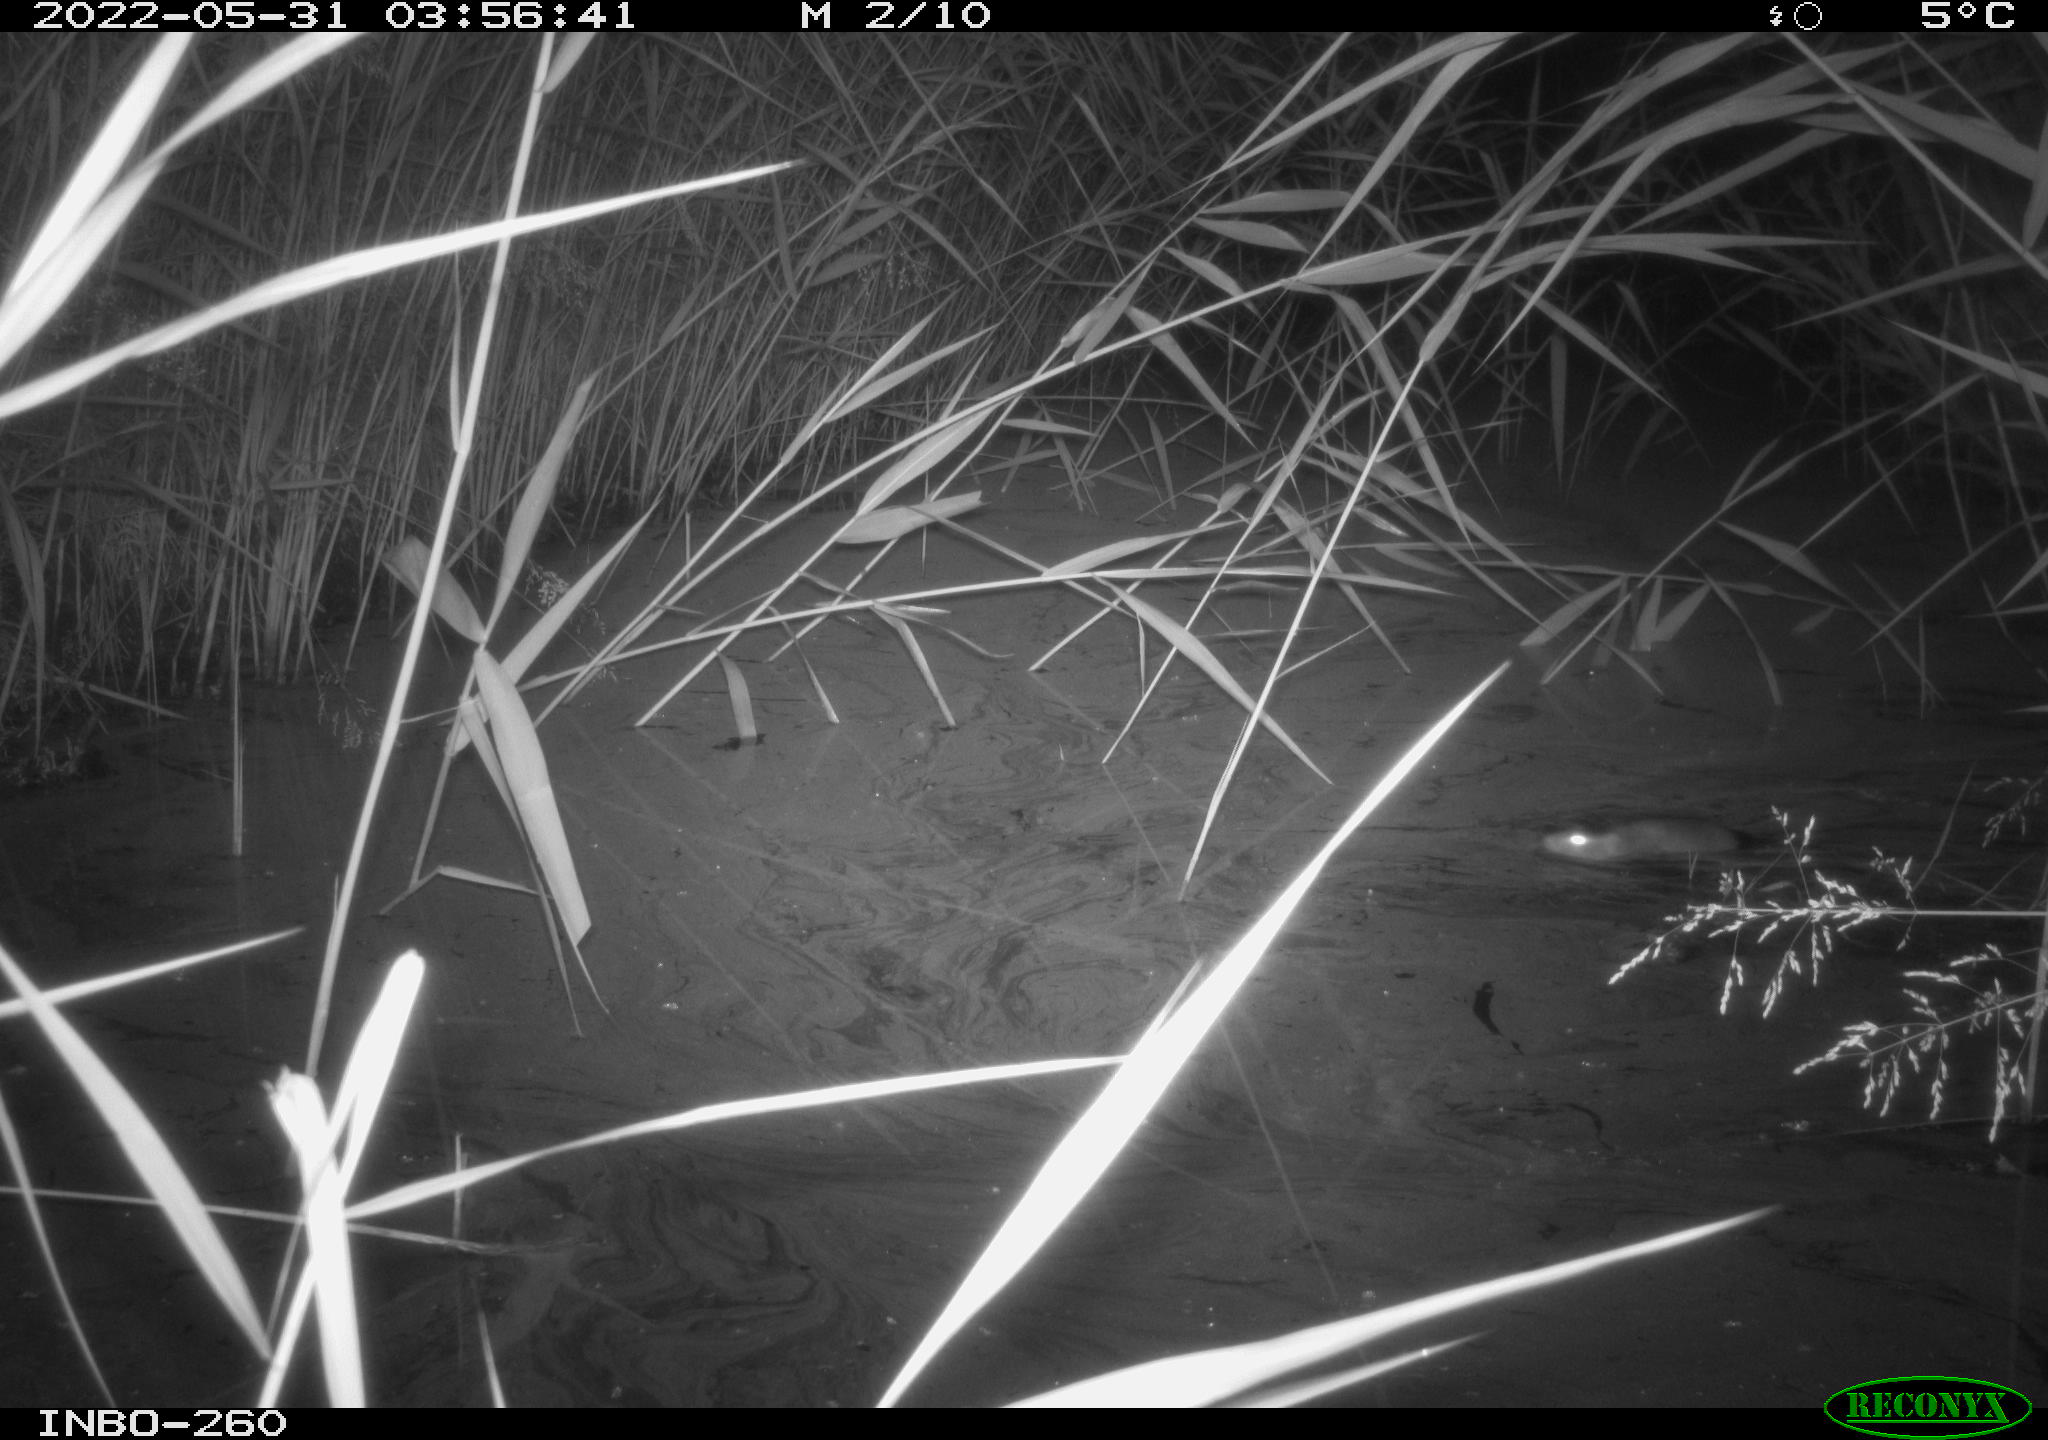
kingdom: Animalia
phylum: Chordata
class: Mammalia
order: Rodentia
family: Muridae
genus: Rattus
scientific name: Rattus norvegicus
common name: Brown rat
